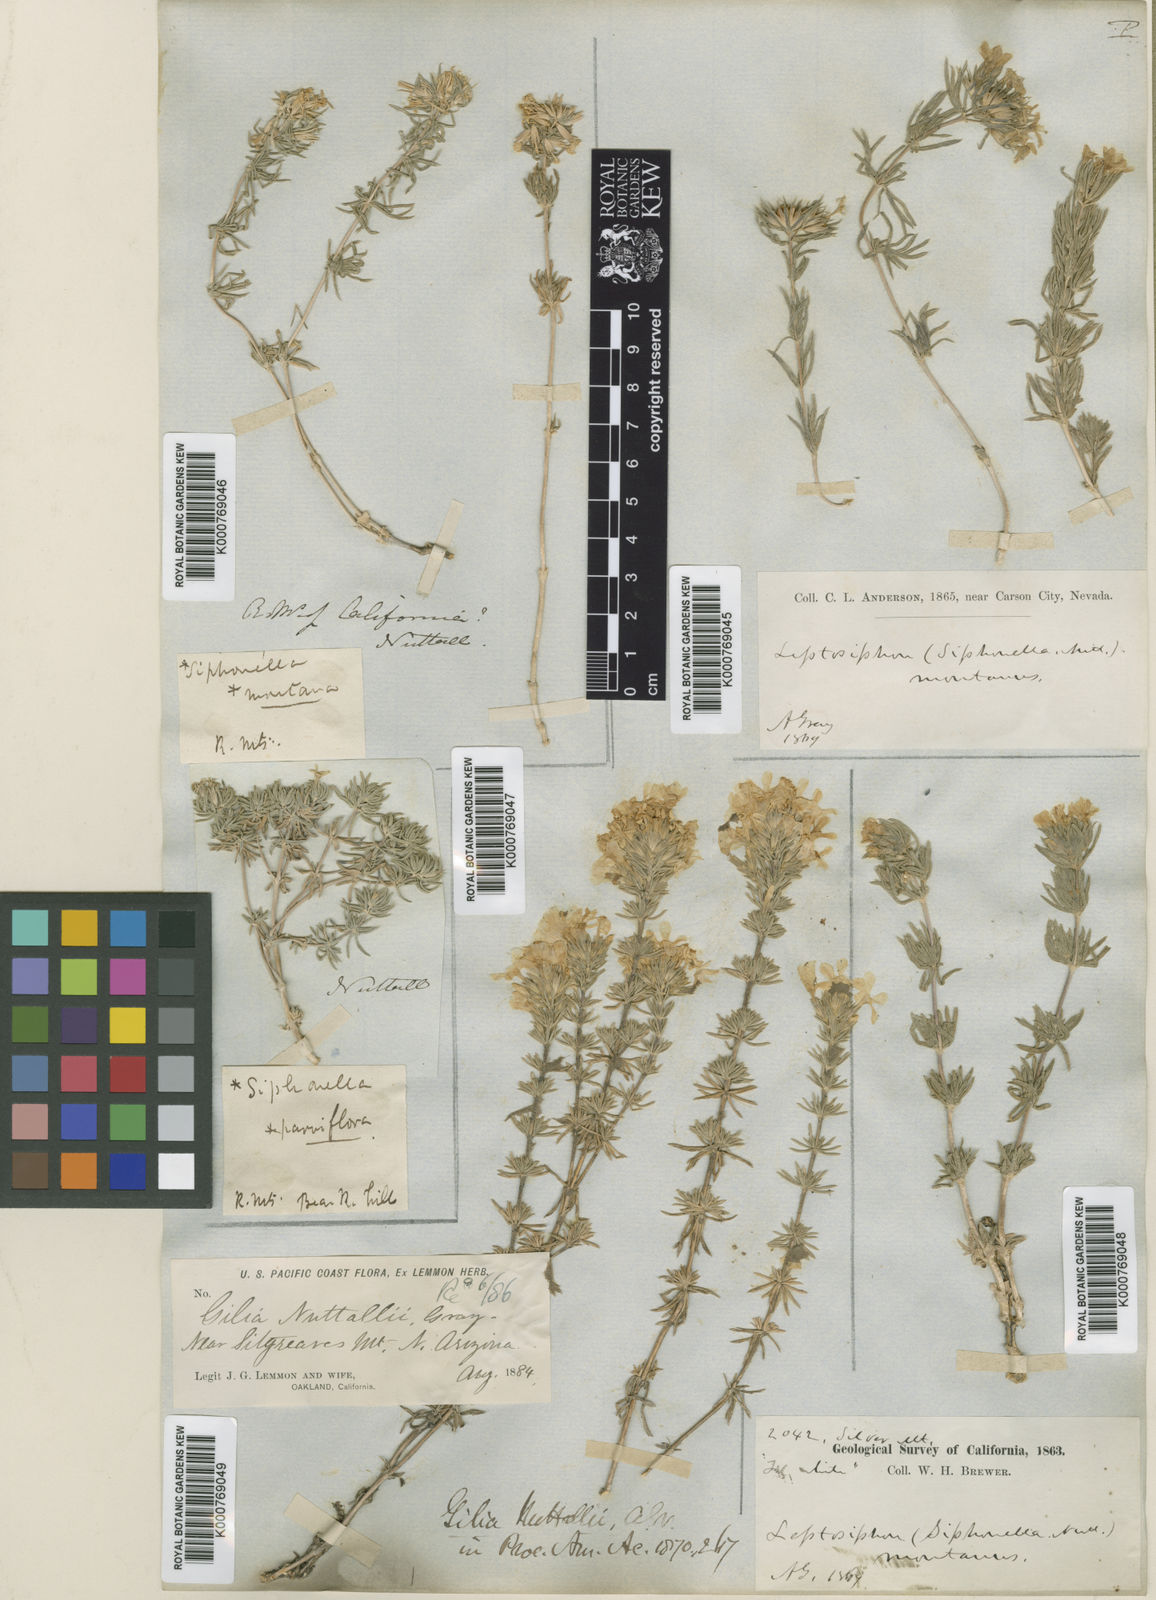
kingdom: Plantae
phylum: Tracheophyta
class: Magnoliopsida
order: Ericales
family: Polemoniaceae
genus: Leptosiphon
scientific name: Leptosiphon nuttallii
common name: Nuttall's linanthus
